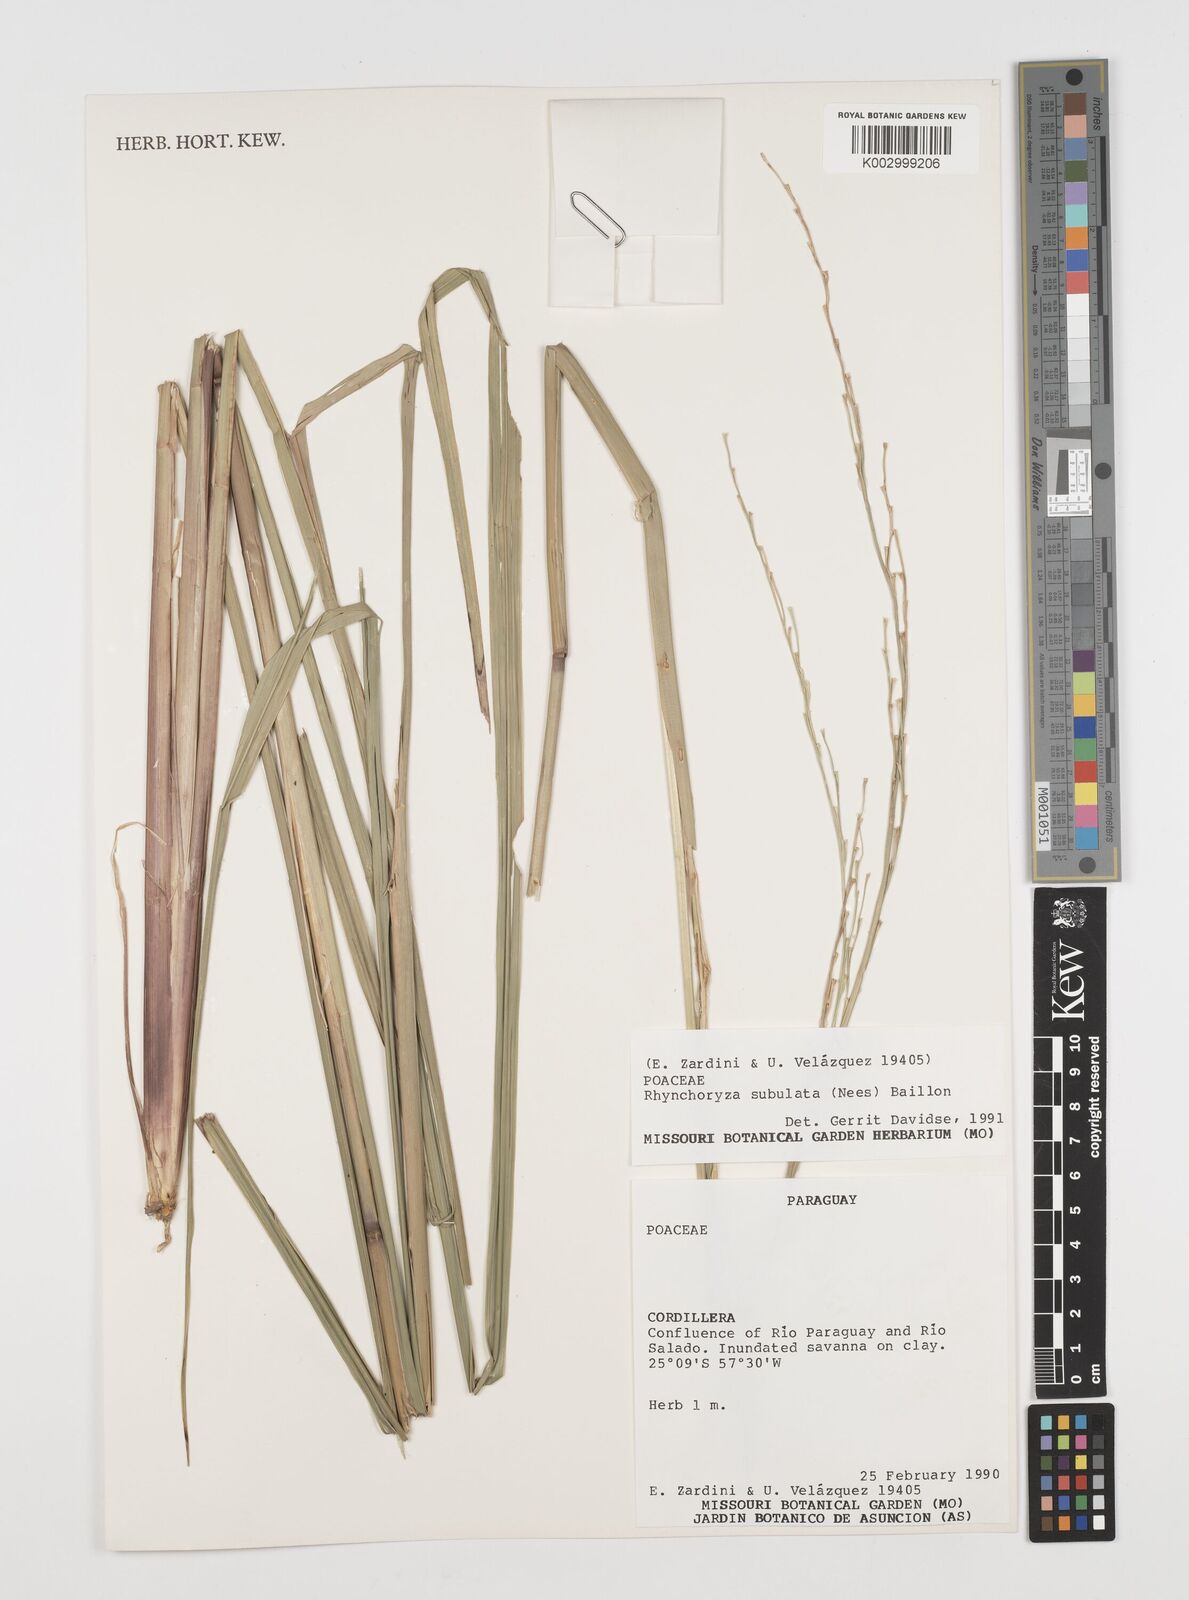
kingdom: Plantae
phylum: Tracheophyta
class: Liliopsida
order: Poales
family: Poaceae
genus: Rhynchoryza
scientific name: Rhynchoryza subulata
